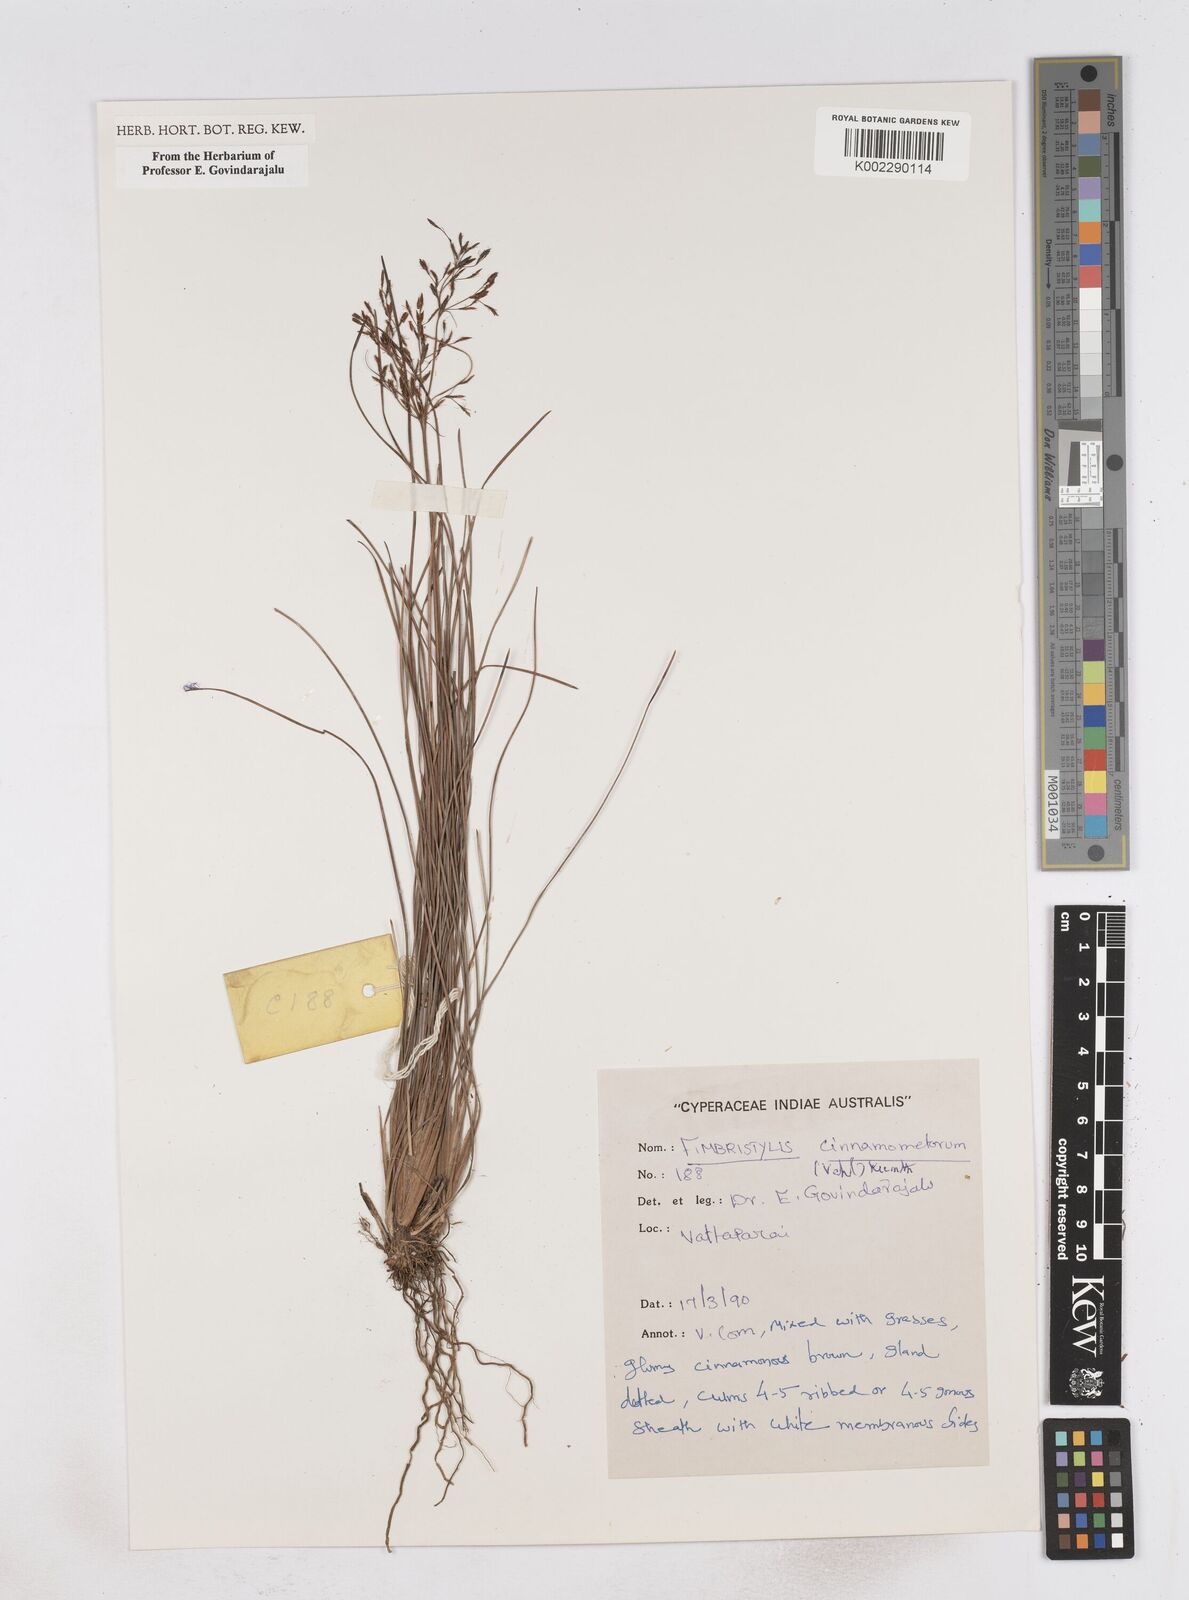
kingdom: Plantae
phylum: Tracheophyta
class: Liliopsida
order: Poales
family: Cyperaceae
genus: Fimbristylis
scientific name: Fimbristylis cinnamometorum
